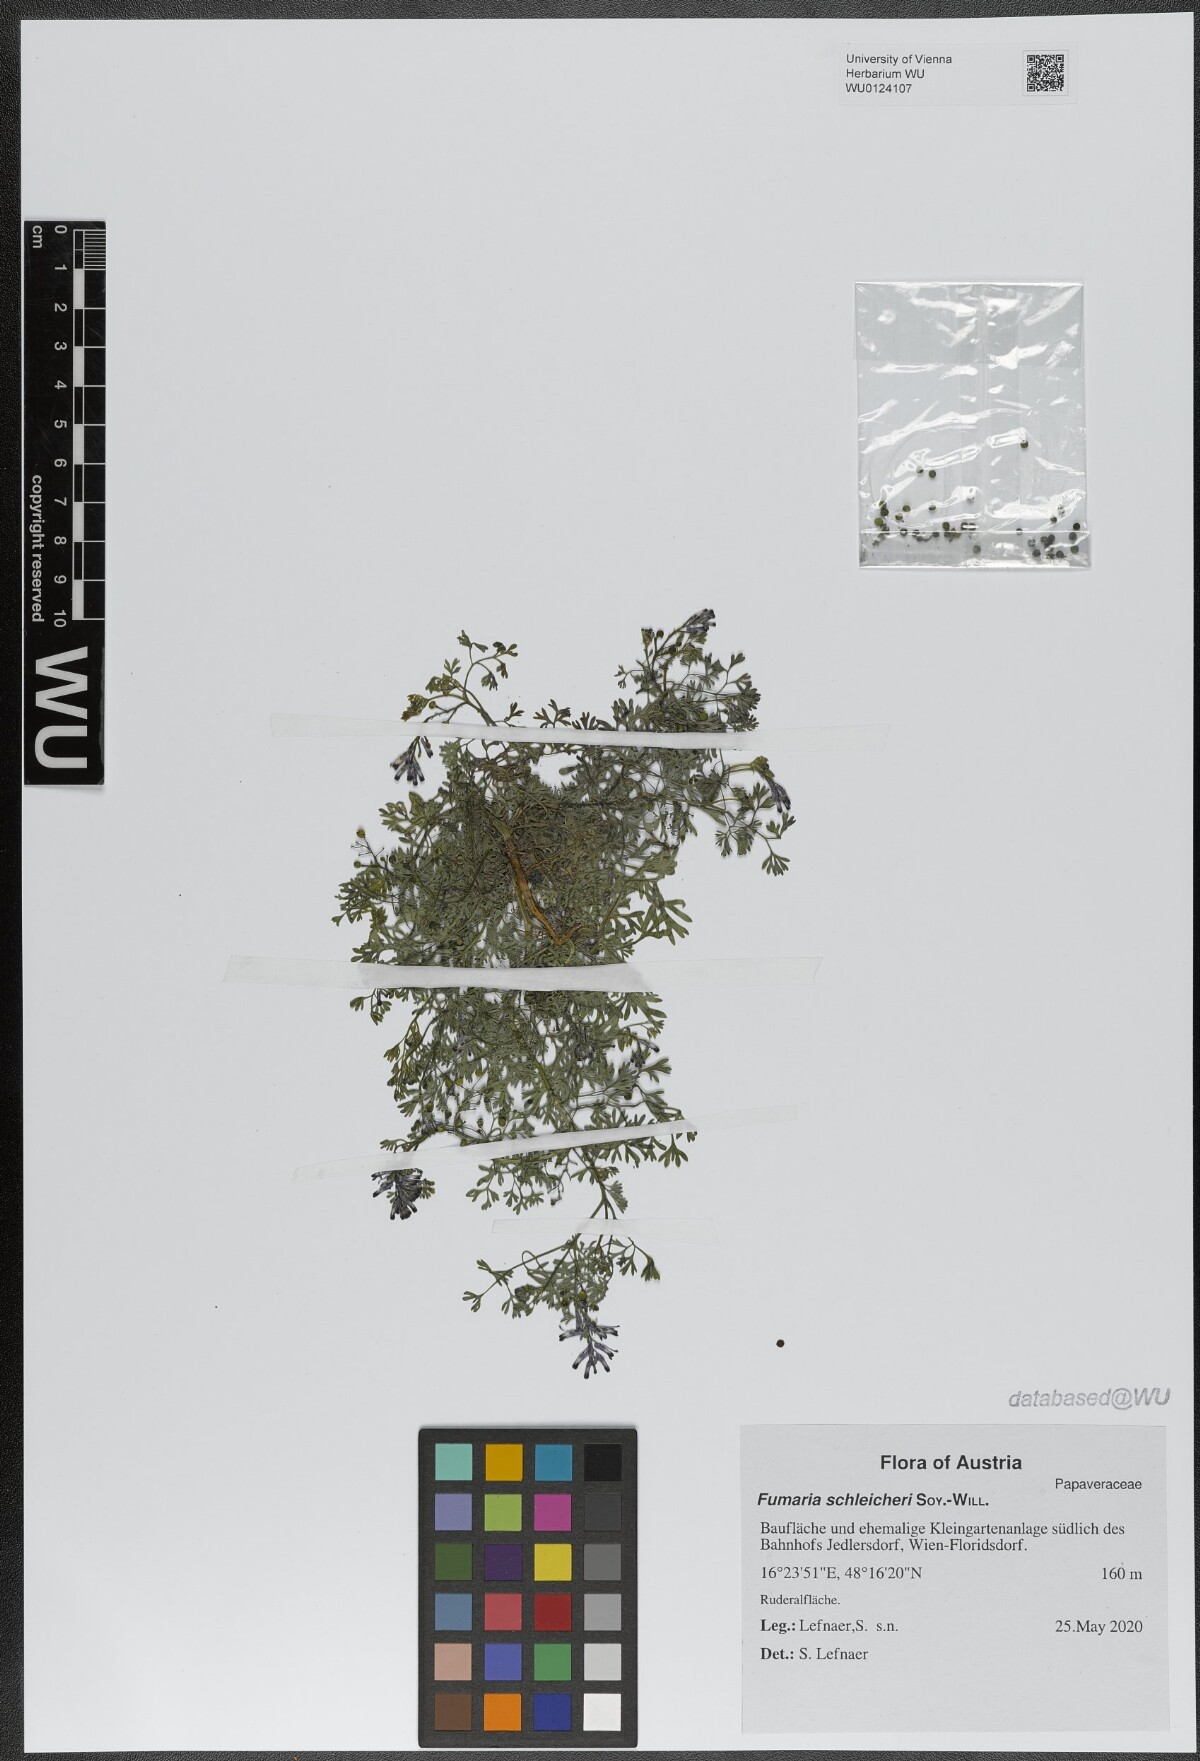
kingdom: Plantae
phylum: Tracheophyta
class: Magnoliopsida
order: Ranunculales
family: Papaveraceae
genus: Fumaria
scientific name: Fumaria schleicheri
